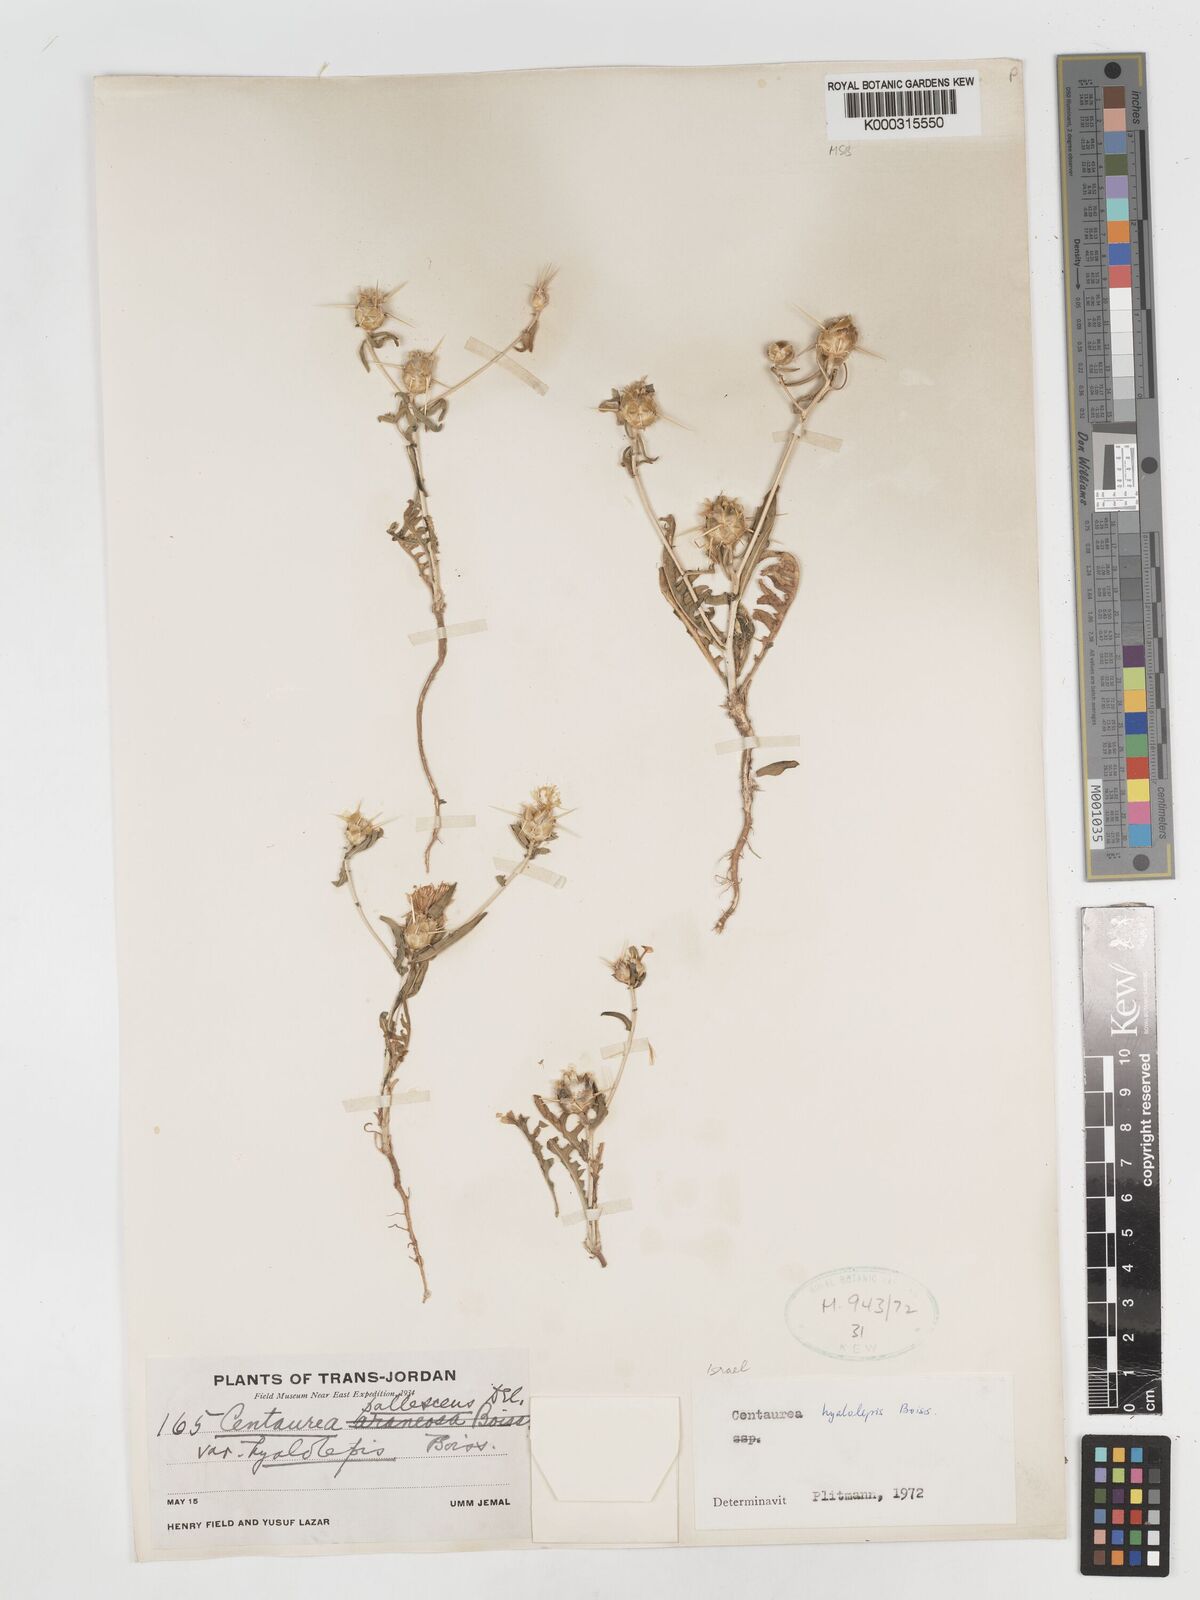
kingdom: Plantae
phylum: Tracheophyta
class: Magnoliopsida
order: Asterales
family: Asteraceae
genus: Centaurea
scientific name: Centaurea hyalolepis
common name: Eastern star-thistle
